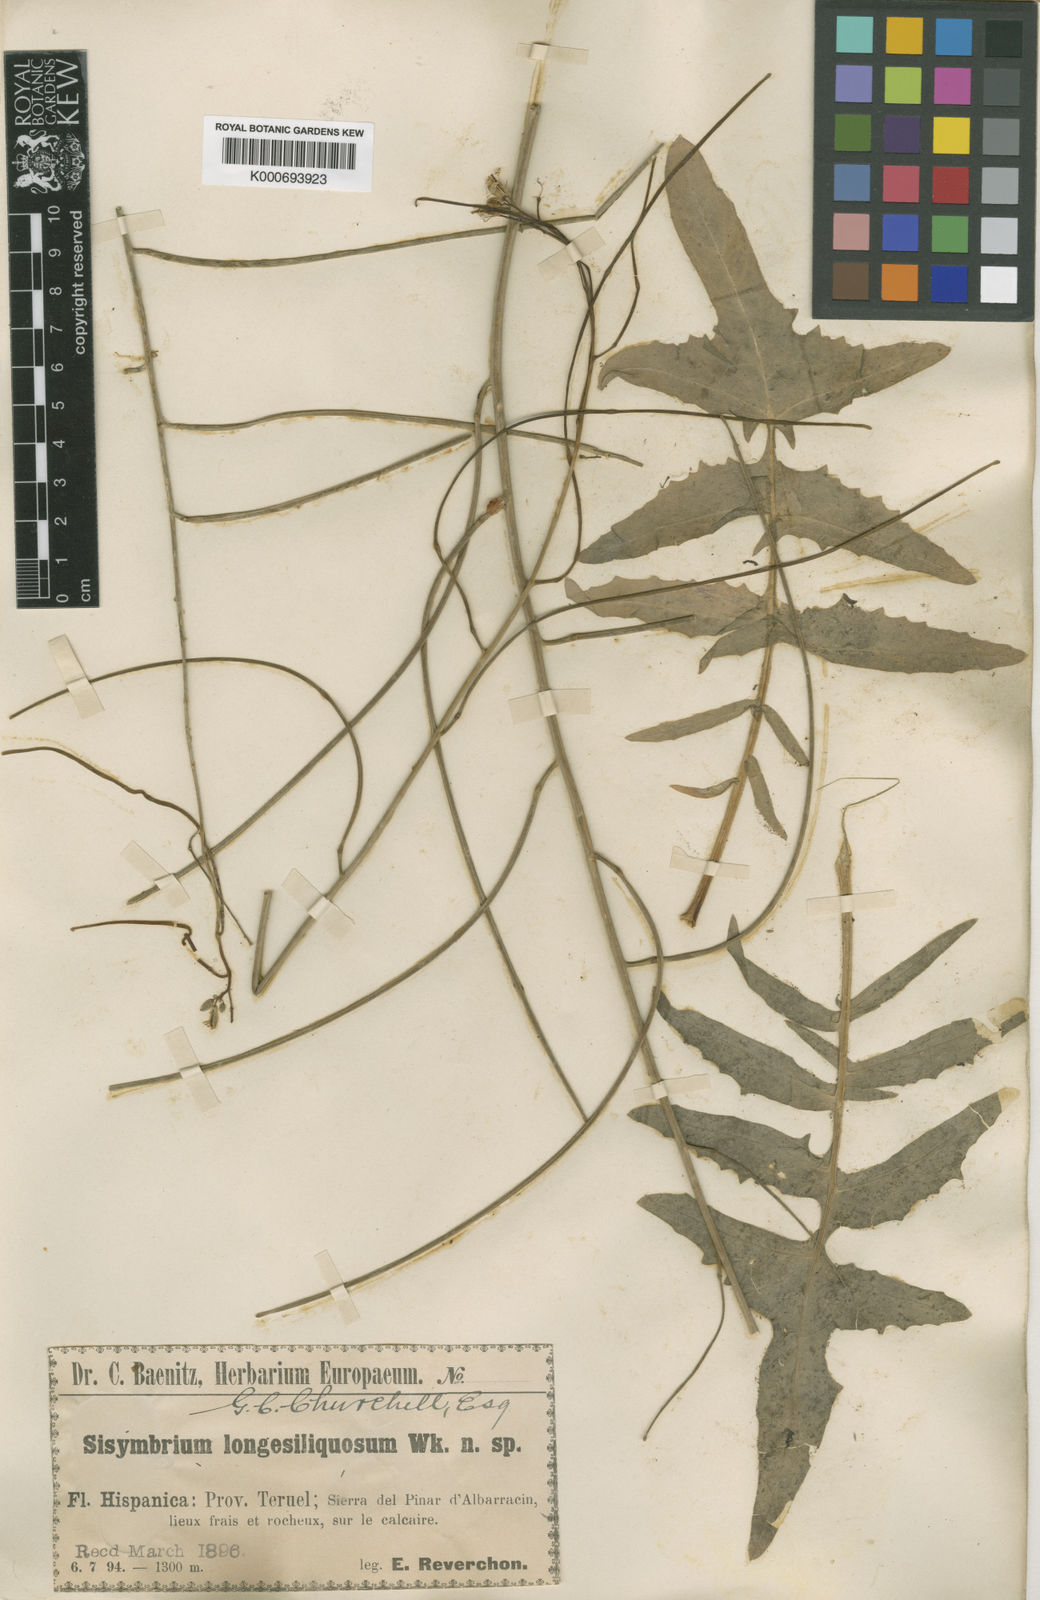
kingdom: Plantae
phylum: Tracheophyta
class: Magnoliopsida
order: Brassicales
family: Brassicaceae
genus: Sisymbrium
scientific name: Sisymbrium orientale
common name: Eastern rocket
